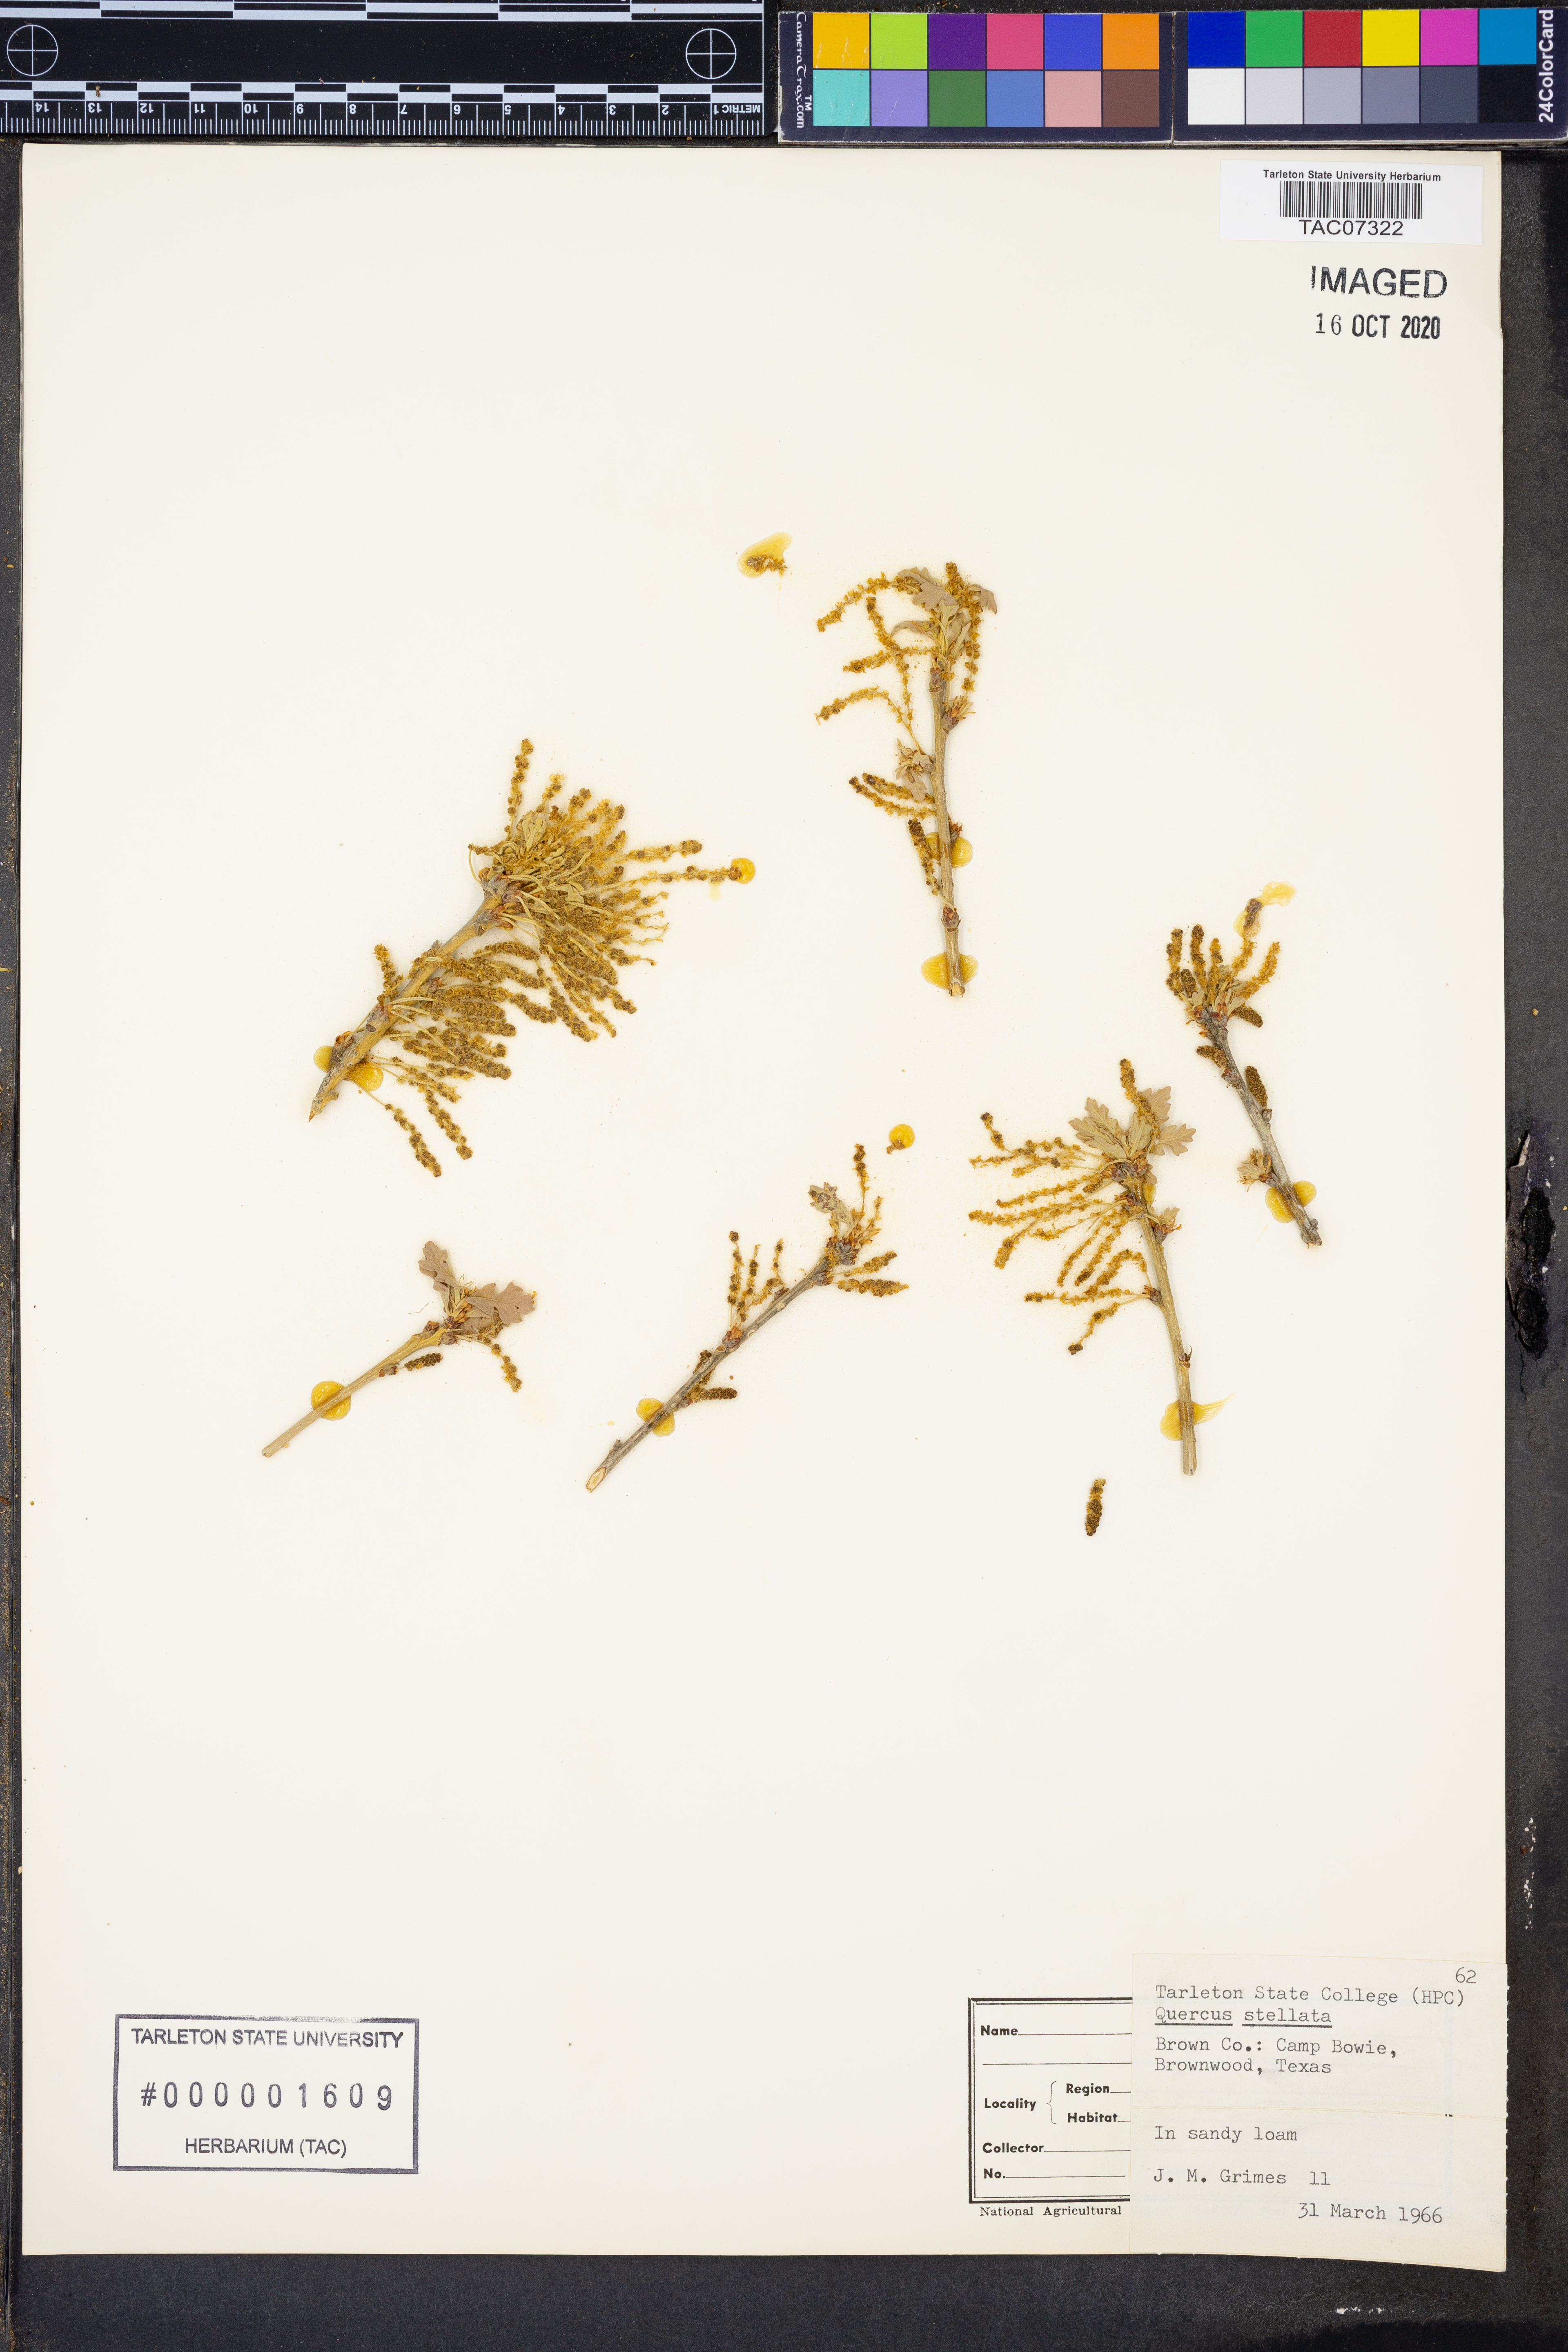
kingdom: Plantae
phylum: Tracheophyta
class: Magnoliopsida
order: Fagales
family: Fagaceae
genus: Quercus
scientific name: Quercus stellata
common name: Post oak
